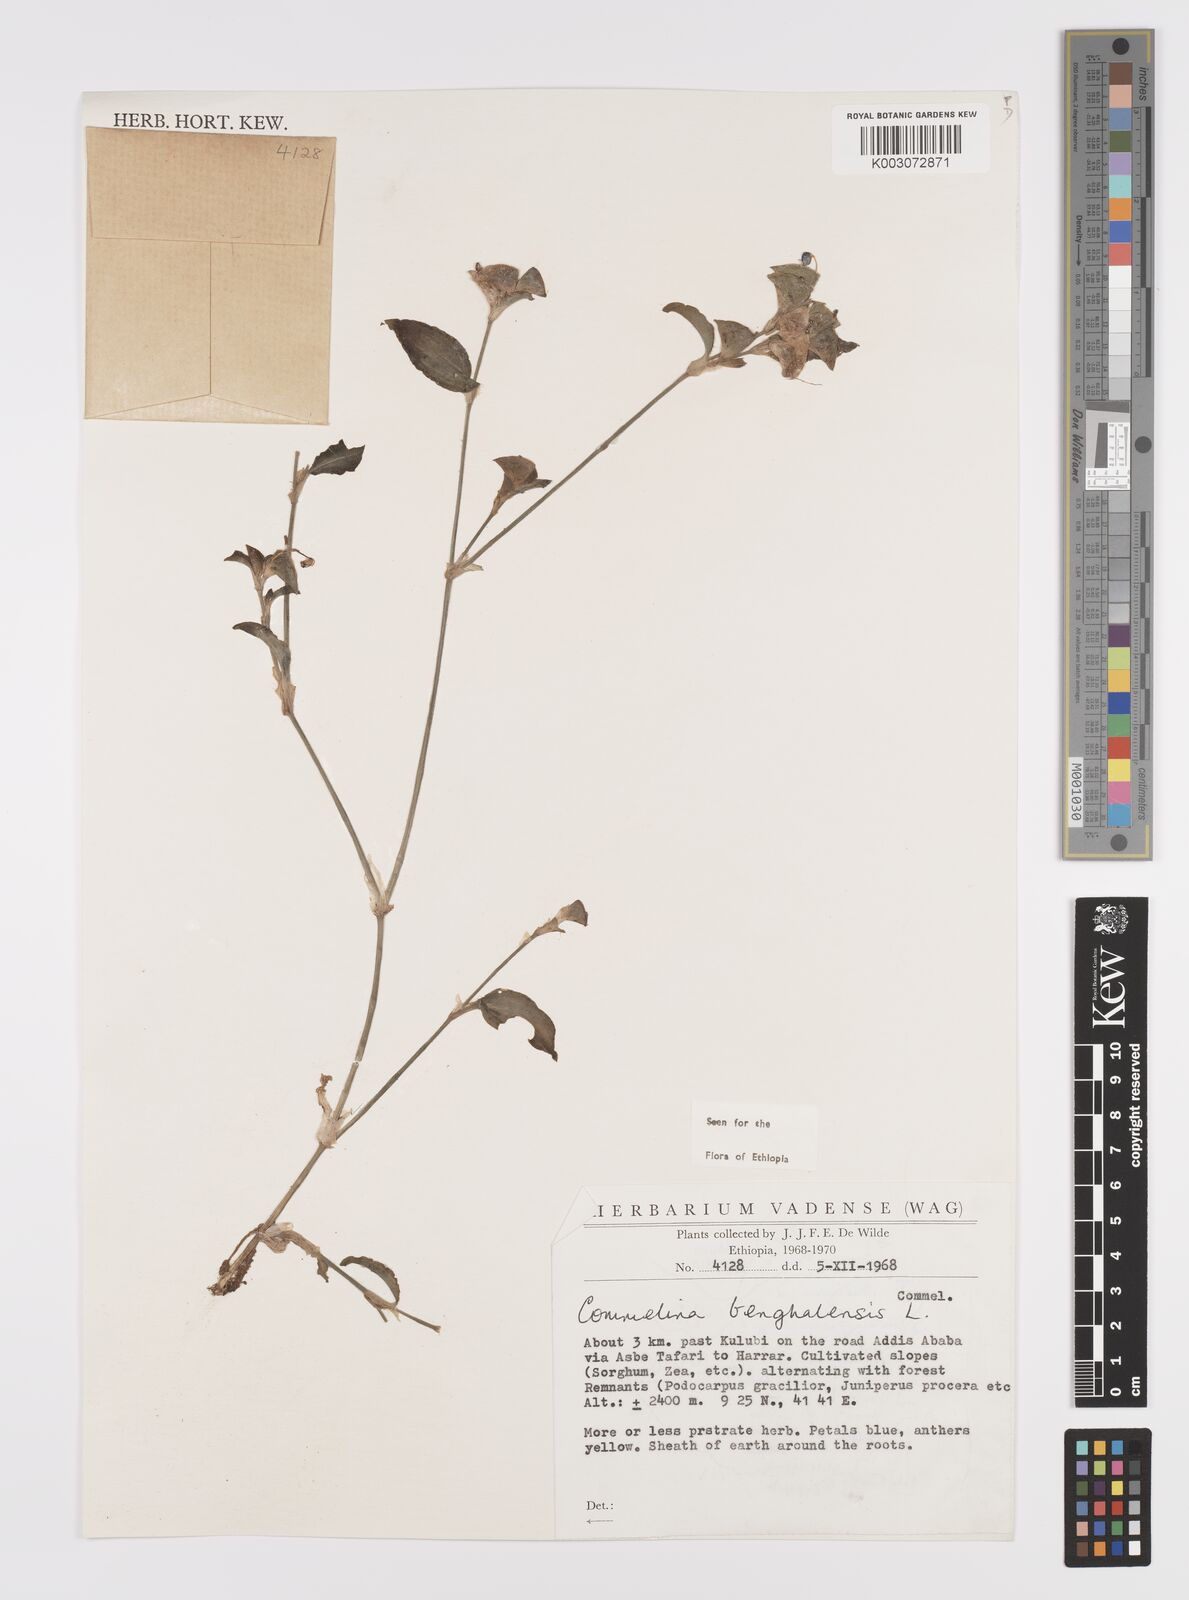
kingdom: Plantae
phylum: Tracheophyta
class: Liliopsida
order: Commelinales
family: Commelinaceae
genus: Commelina
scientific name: Commelina benghalensis
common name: Jio
